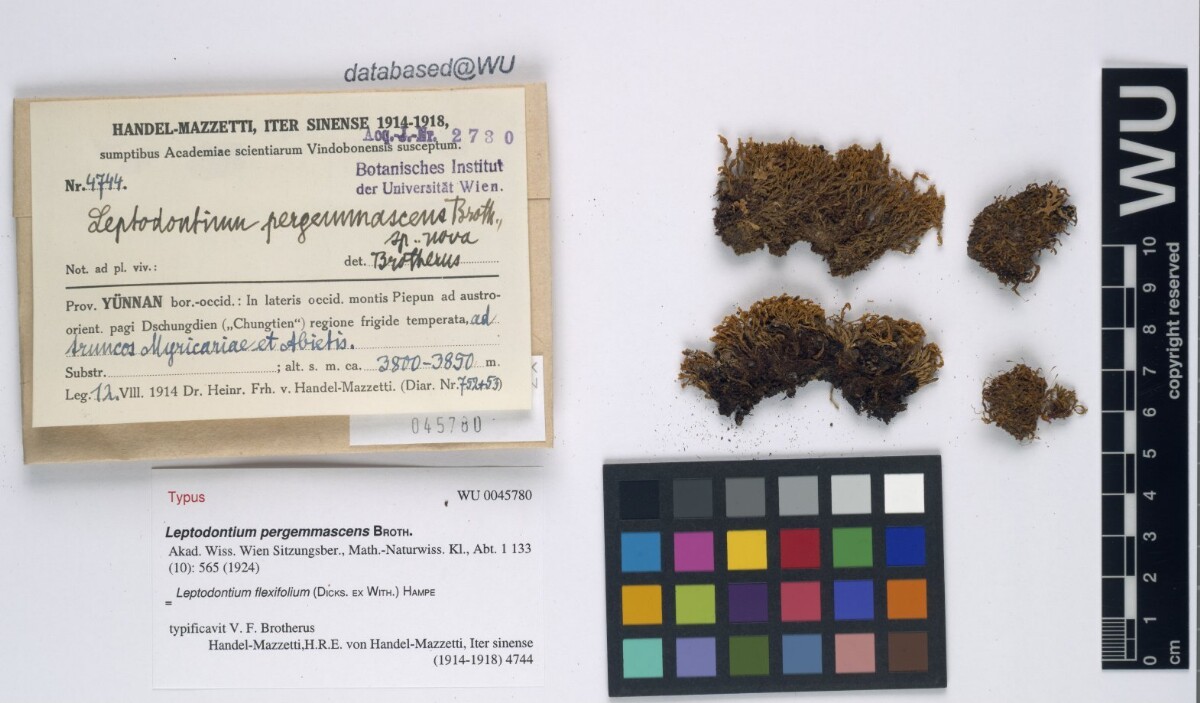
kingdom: Plantae
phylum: Bryophyta
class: Bryopsida
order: Pottiales
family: Pottiaceae
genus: Leptodontium
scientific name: Leptodontium flexifolium
